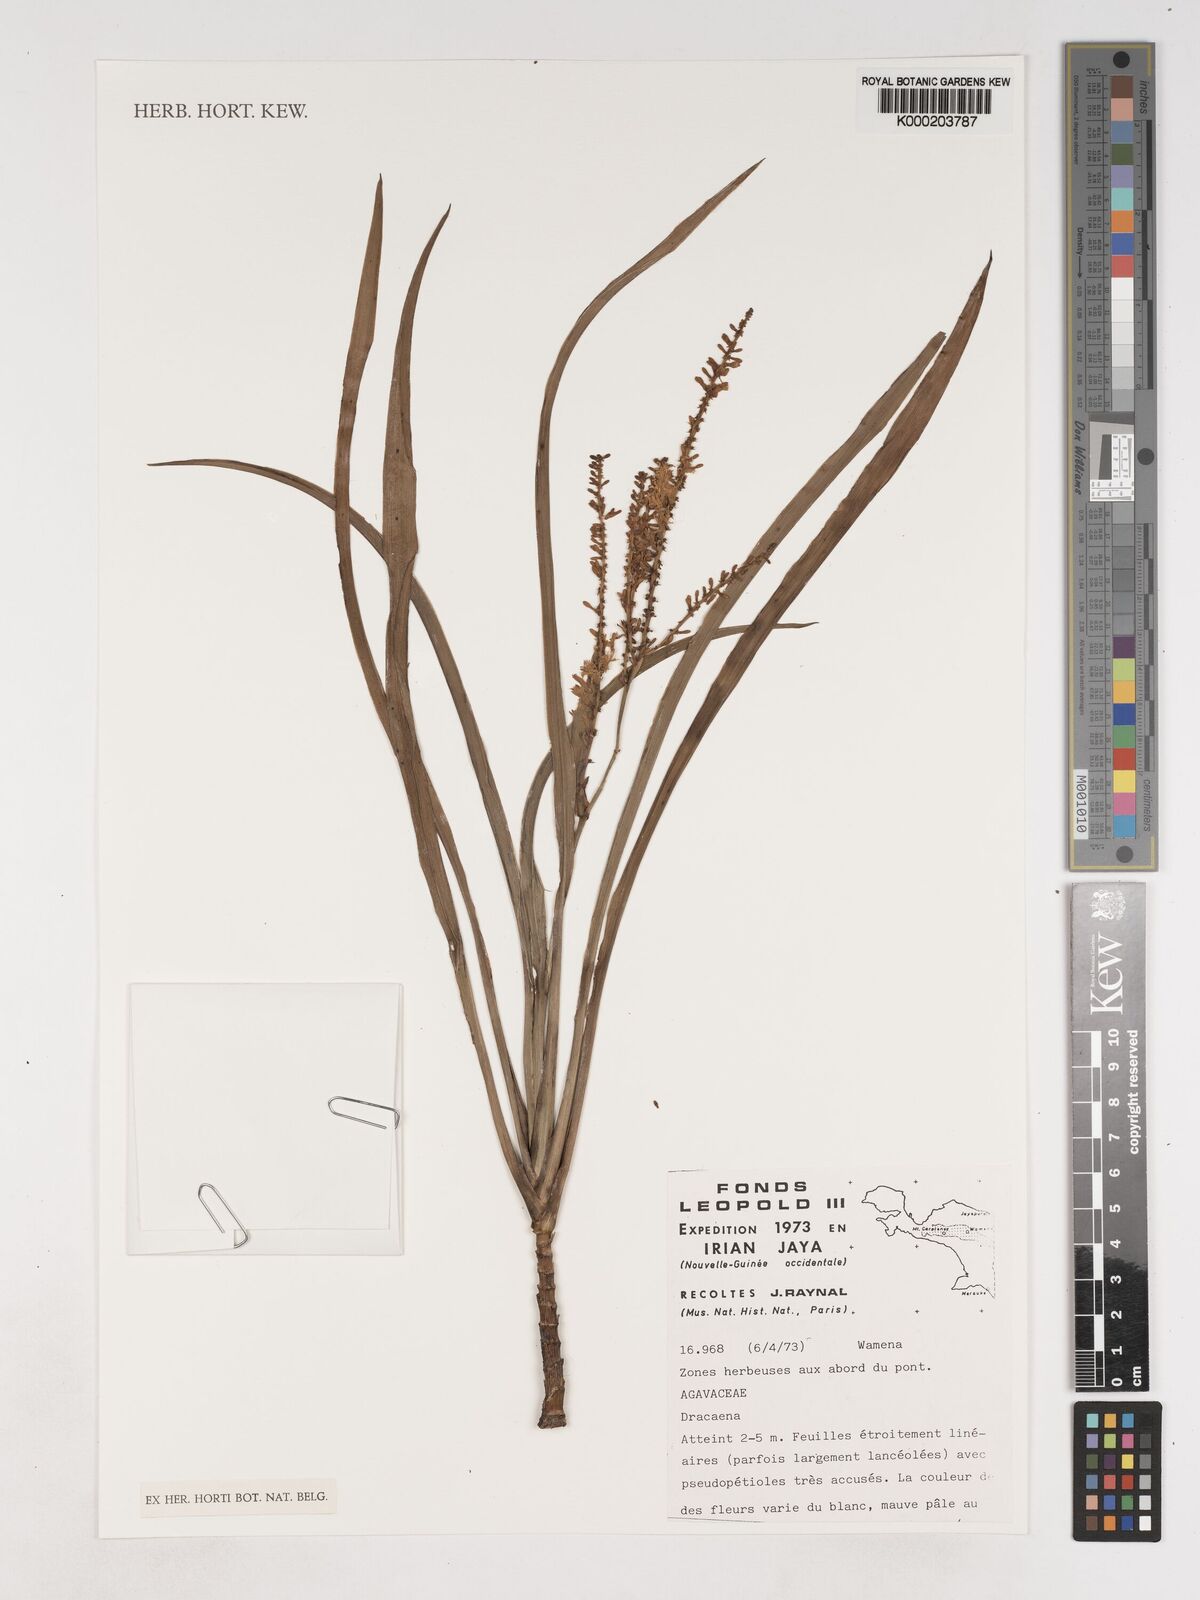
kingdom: Plantae
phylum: Tracheophyta
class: Liliopsida
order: Asparagales
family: Asparagaceae
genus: Dracaena
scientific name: Dracaena
